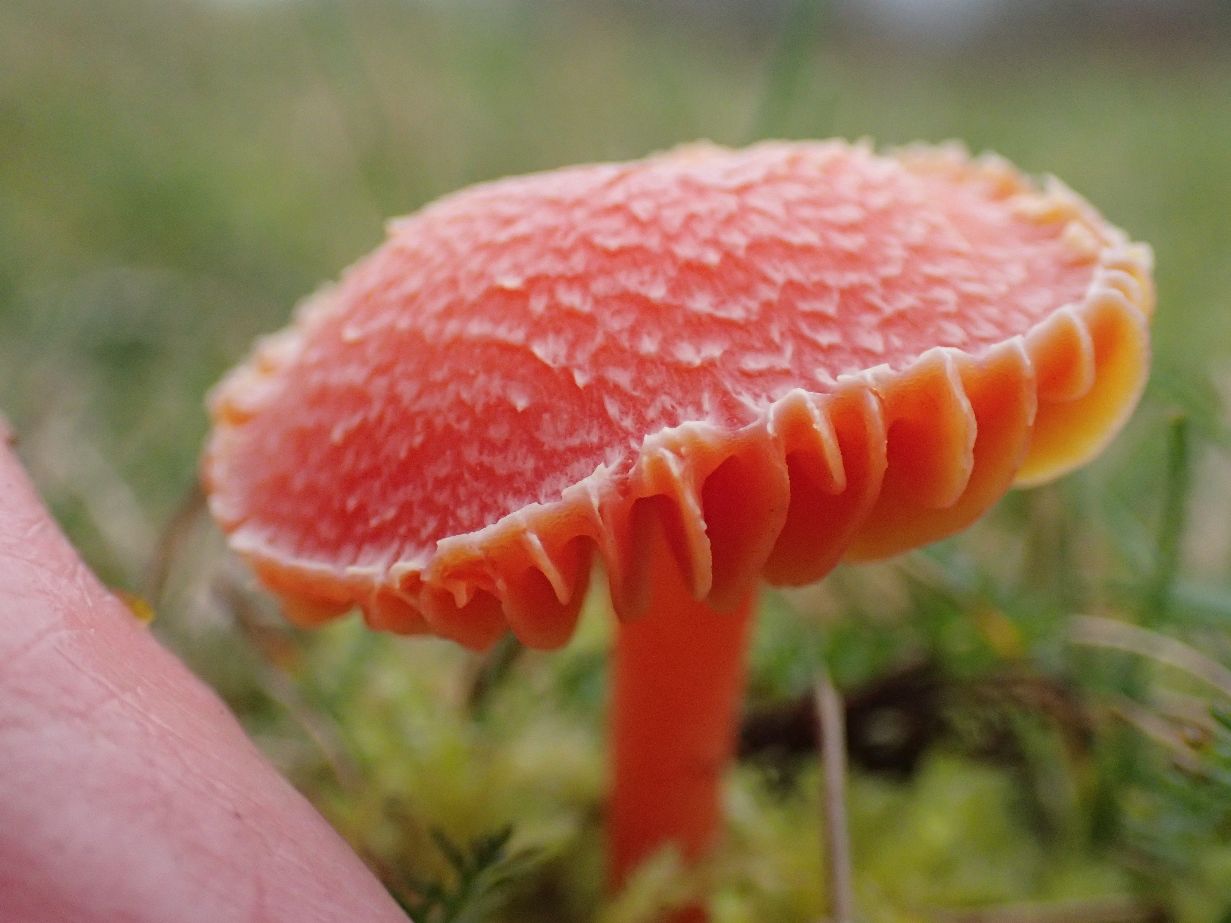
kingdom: Fungi
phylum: Basidiomycota
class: Agaricomycetes
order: Agaricales
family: Hygrophoraceae
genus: Hygrocybe
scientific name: Hygrocybe miniata
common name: mønje-vokshat
